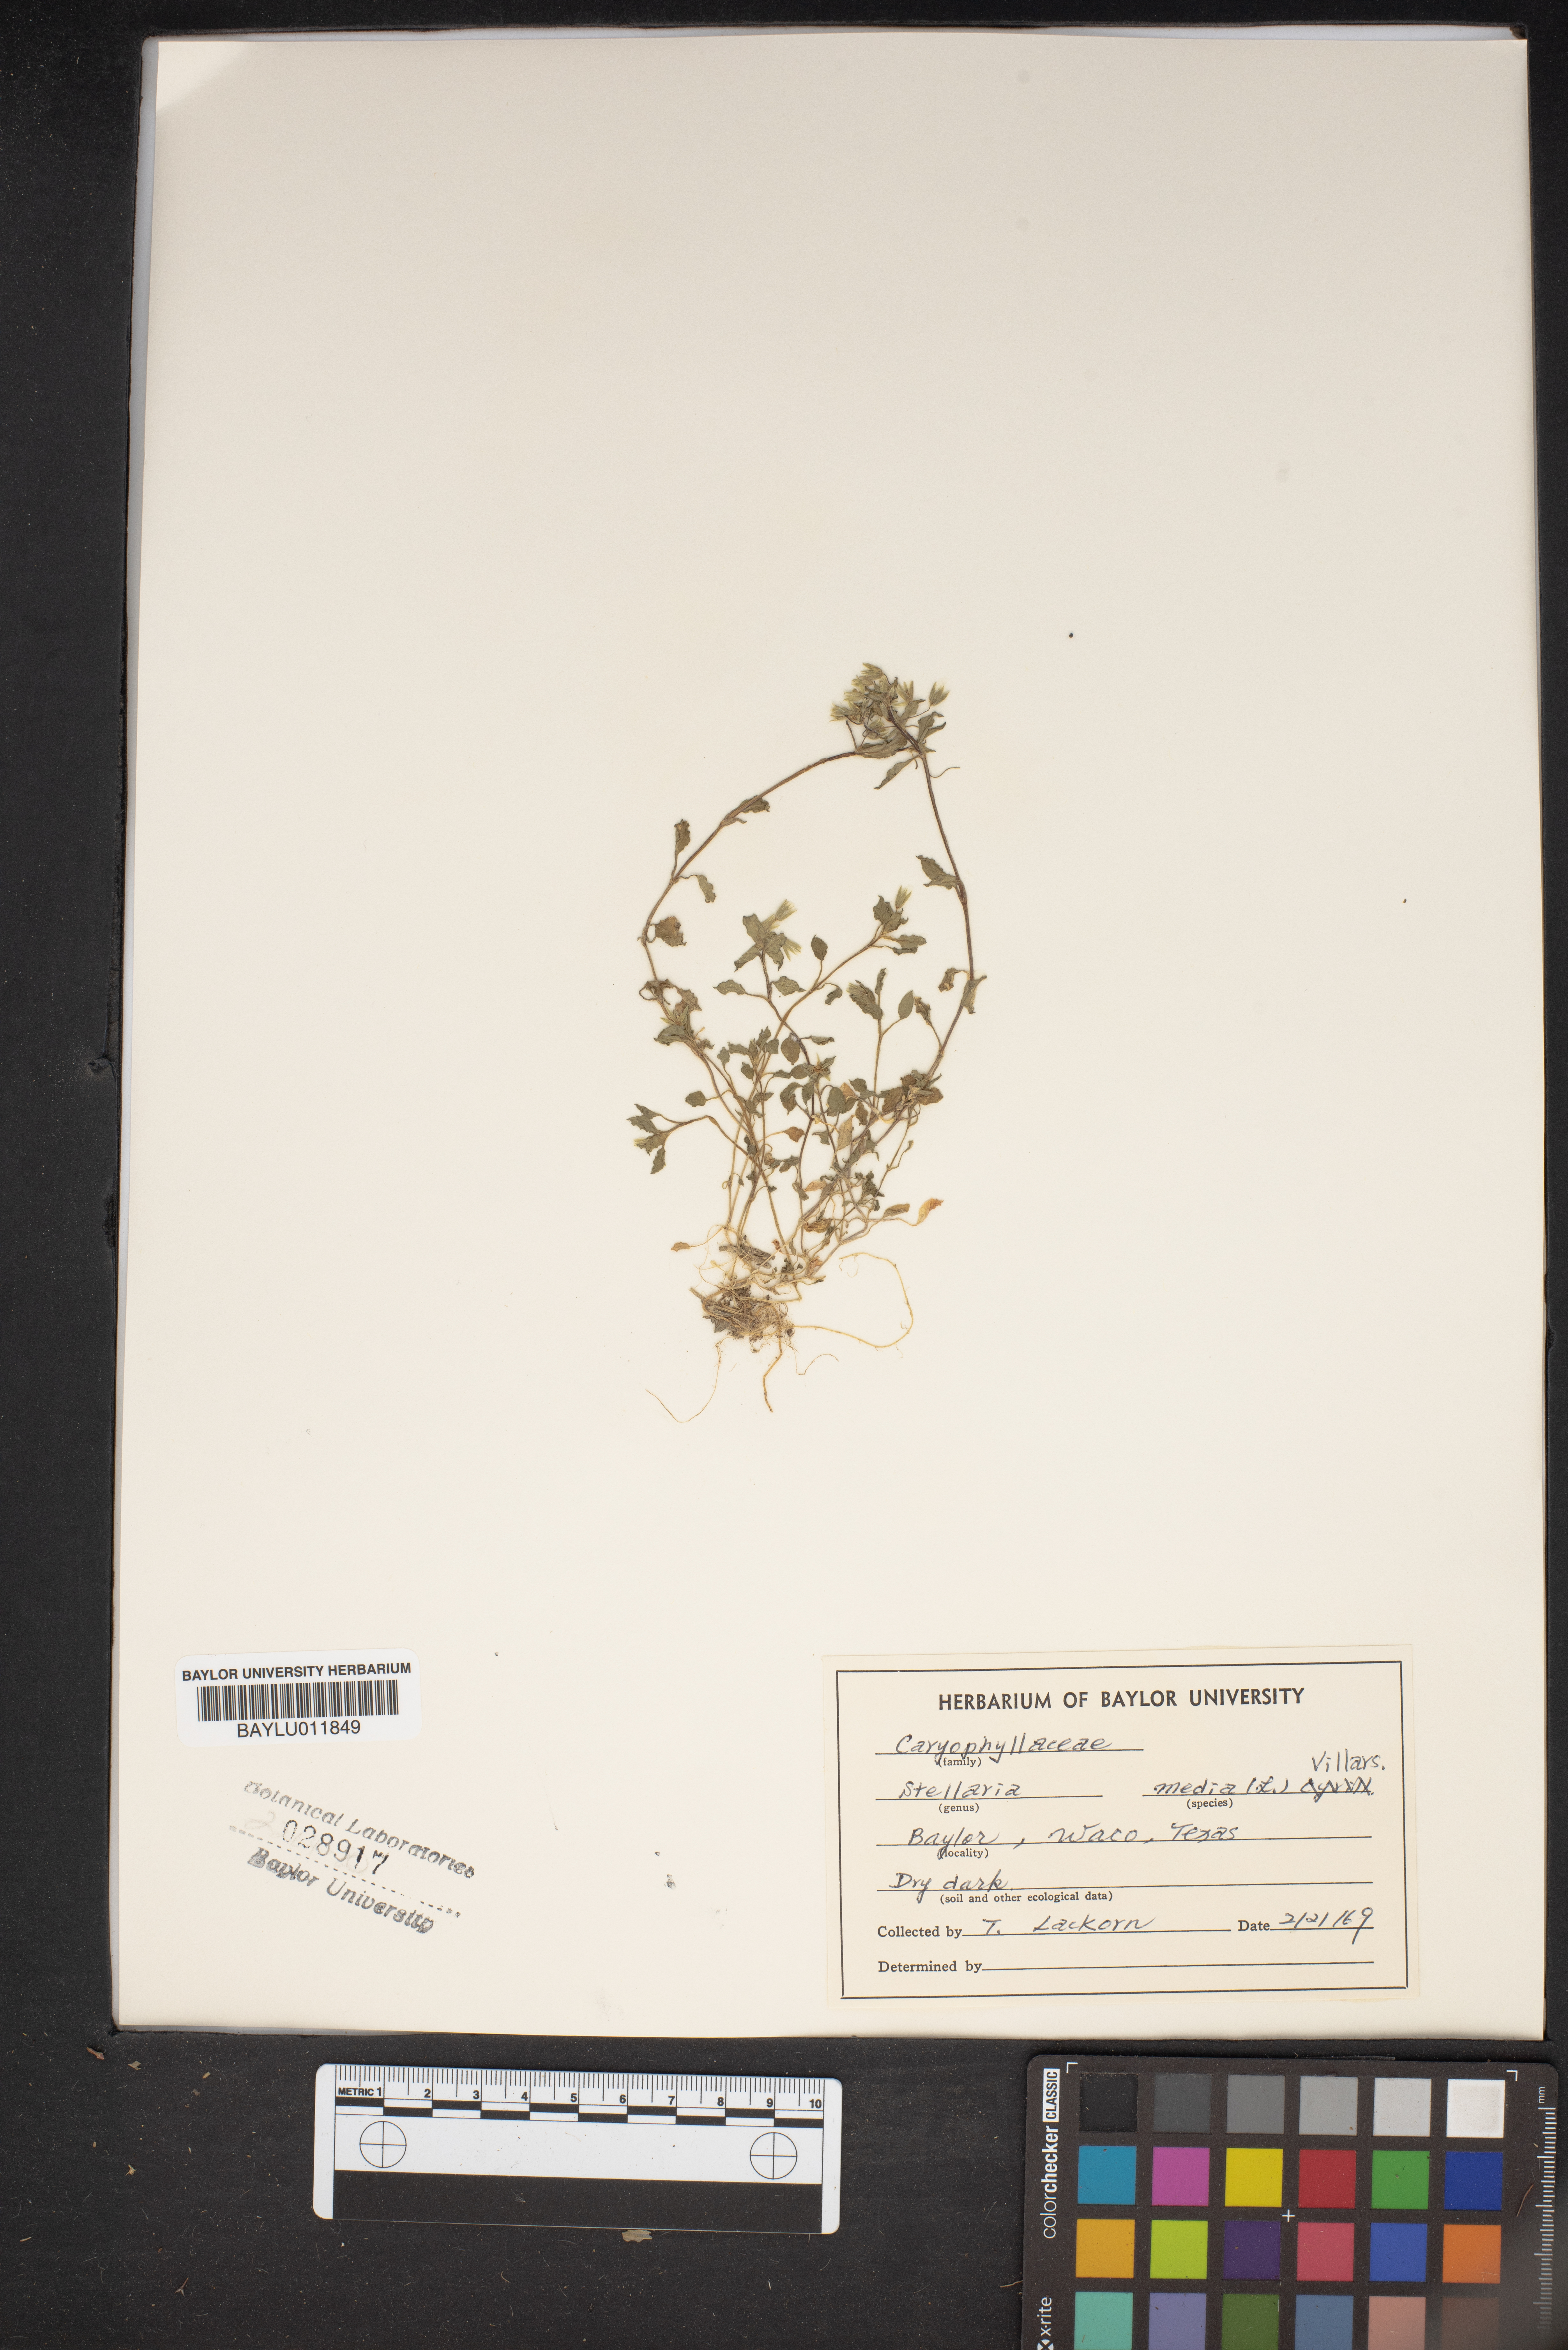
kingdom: Plantae
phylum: Tracheophyta
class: Magnoliopsida
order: Caryophyllales
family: Caryophyllaceae
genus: Stellaria
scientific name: Stellaria media
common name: Common chickweed
